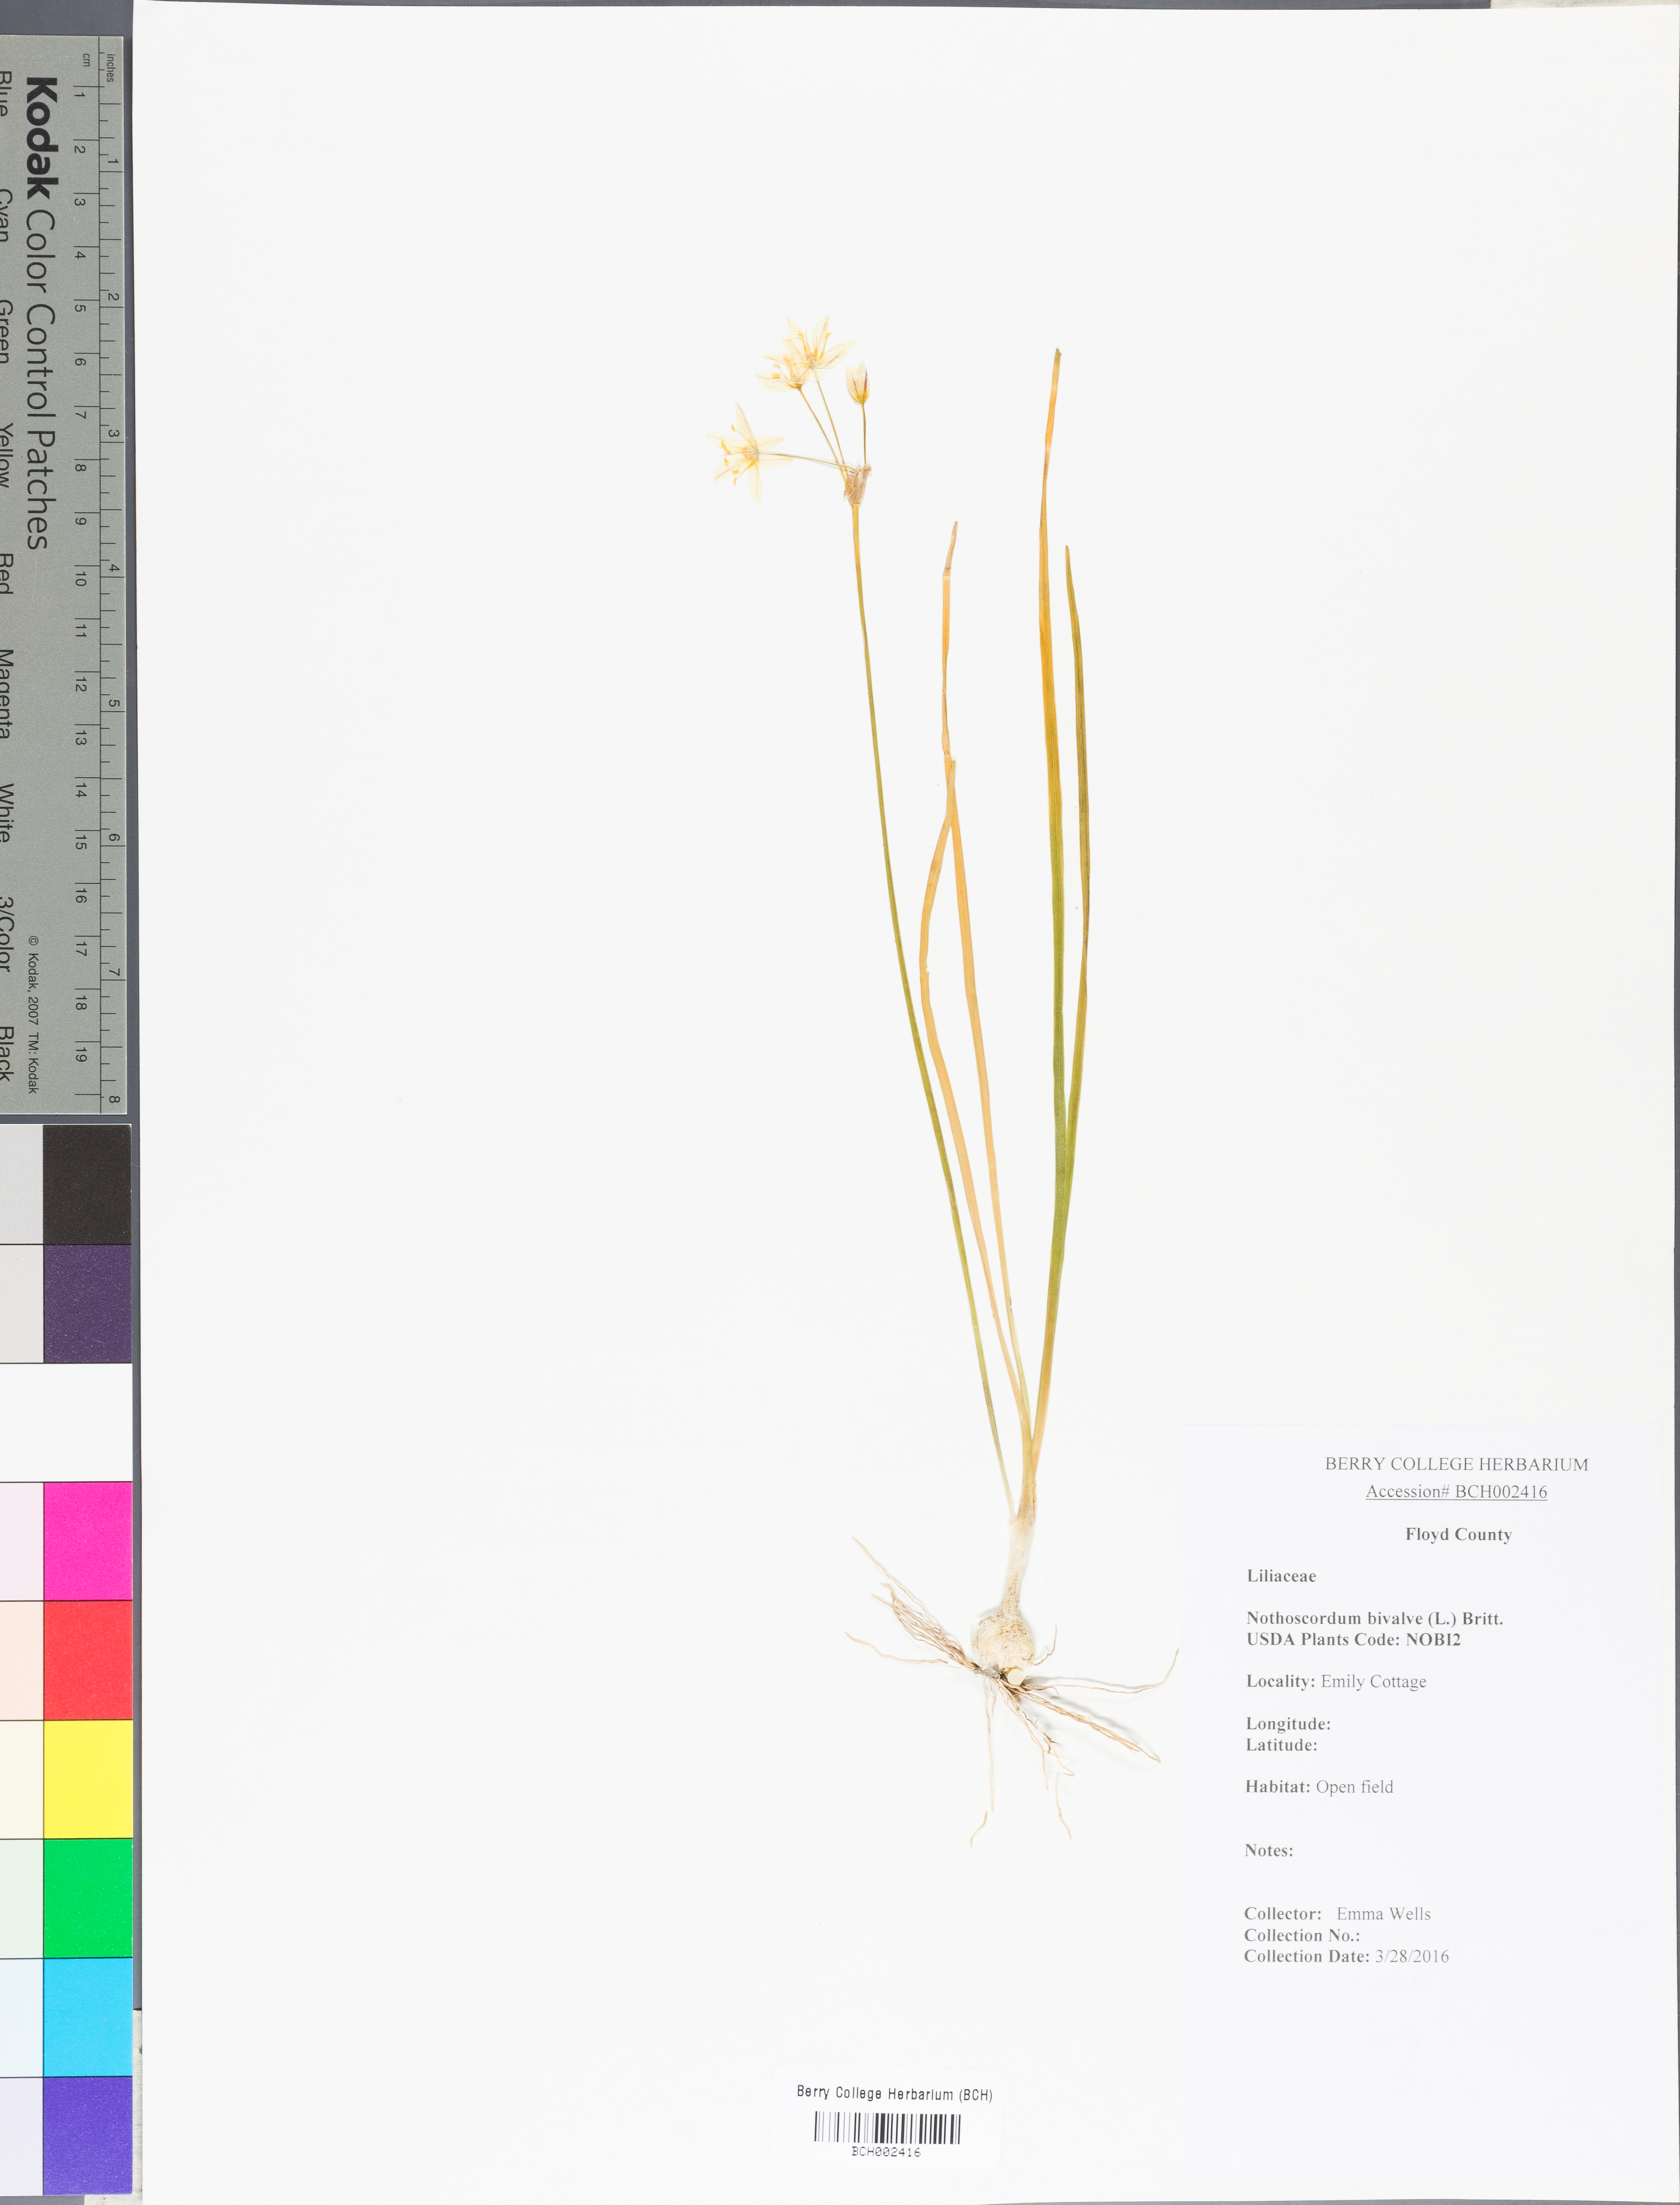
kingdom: Plantae
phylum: Tracheophyta
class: Liliopsida
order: Asparagales
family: Amaryllidaceae
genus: Nothoscordum
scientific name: Nothoscordum bivalve
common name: Crow-poison
